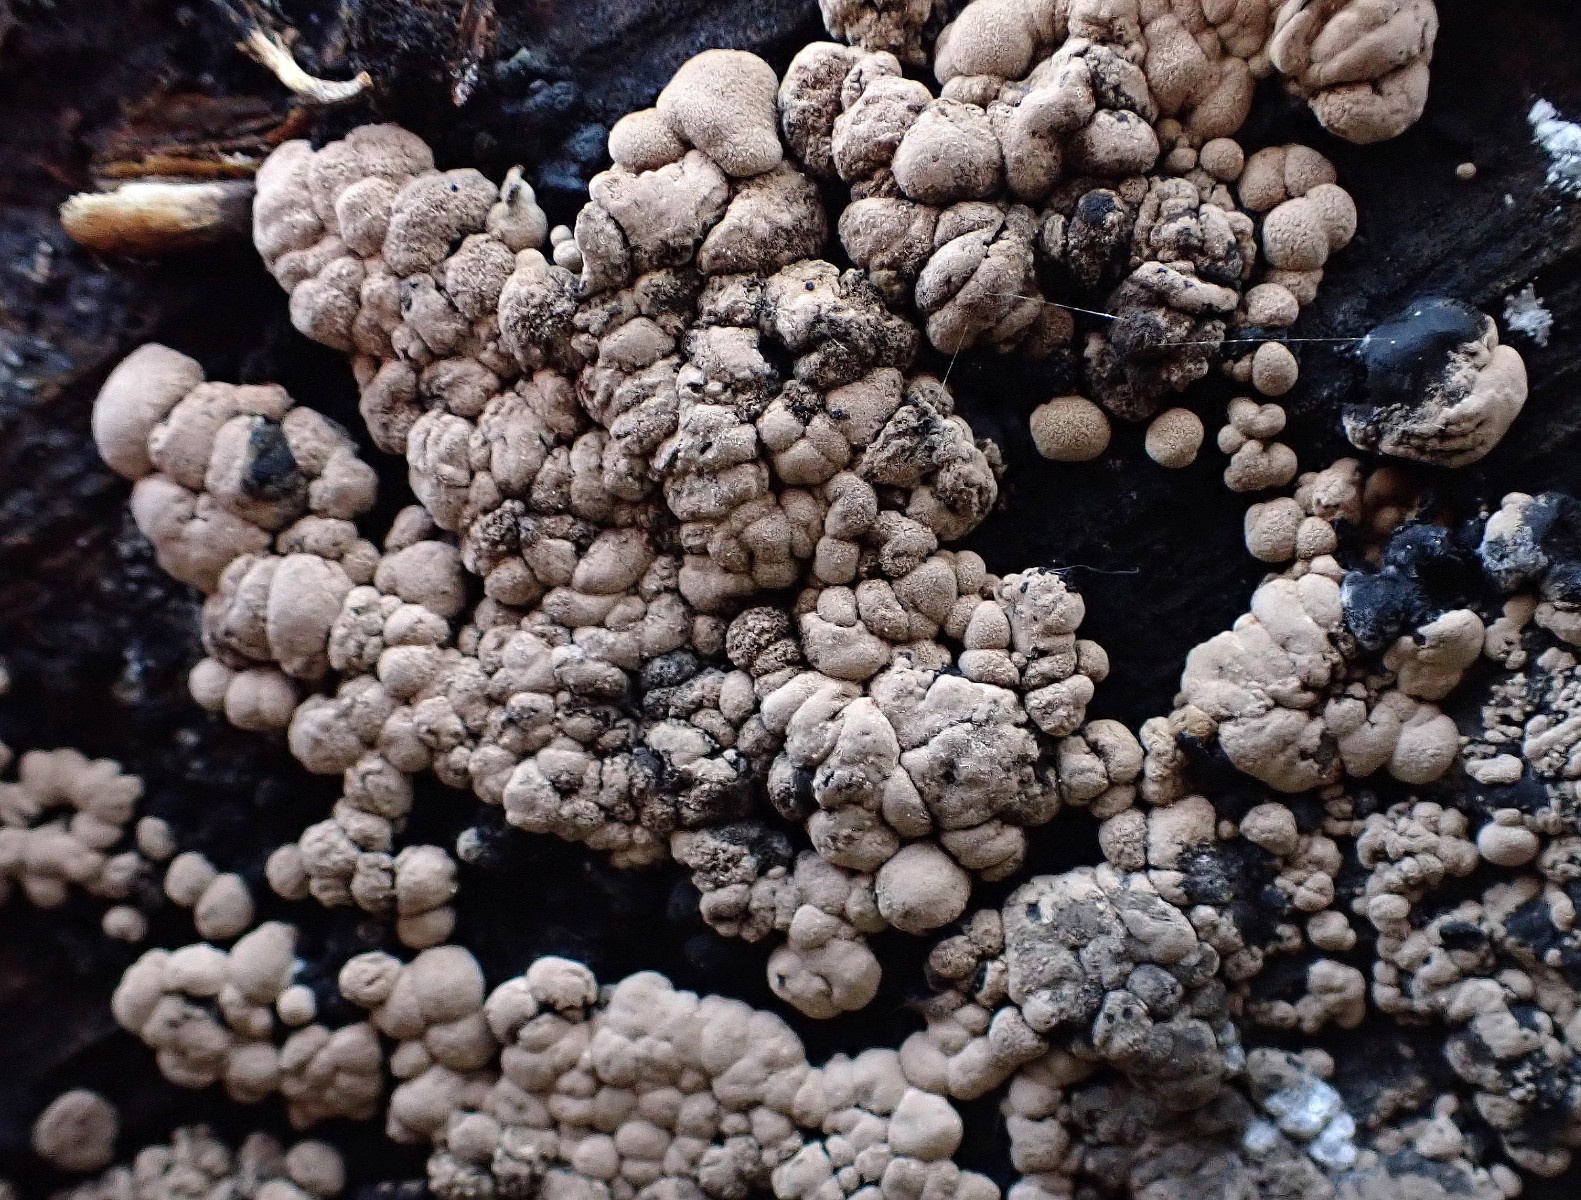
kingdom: Fungi
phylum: Ascomycota
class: Sordariomycetes
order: Xylariales
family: Hypoxylaceae
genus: Jackrogersella
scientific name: Jackrogersella cohaerens
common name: sammenflydende kulbær
